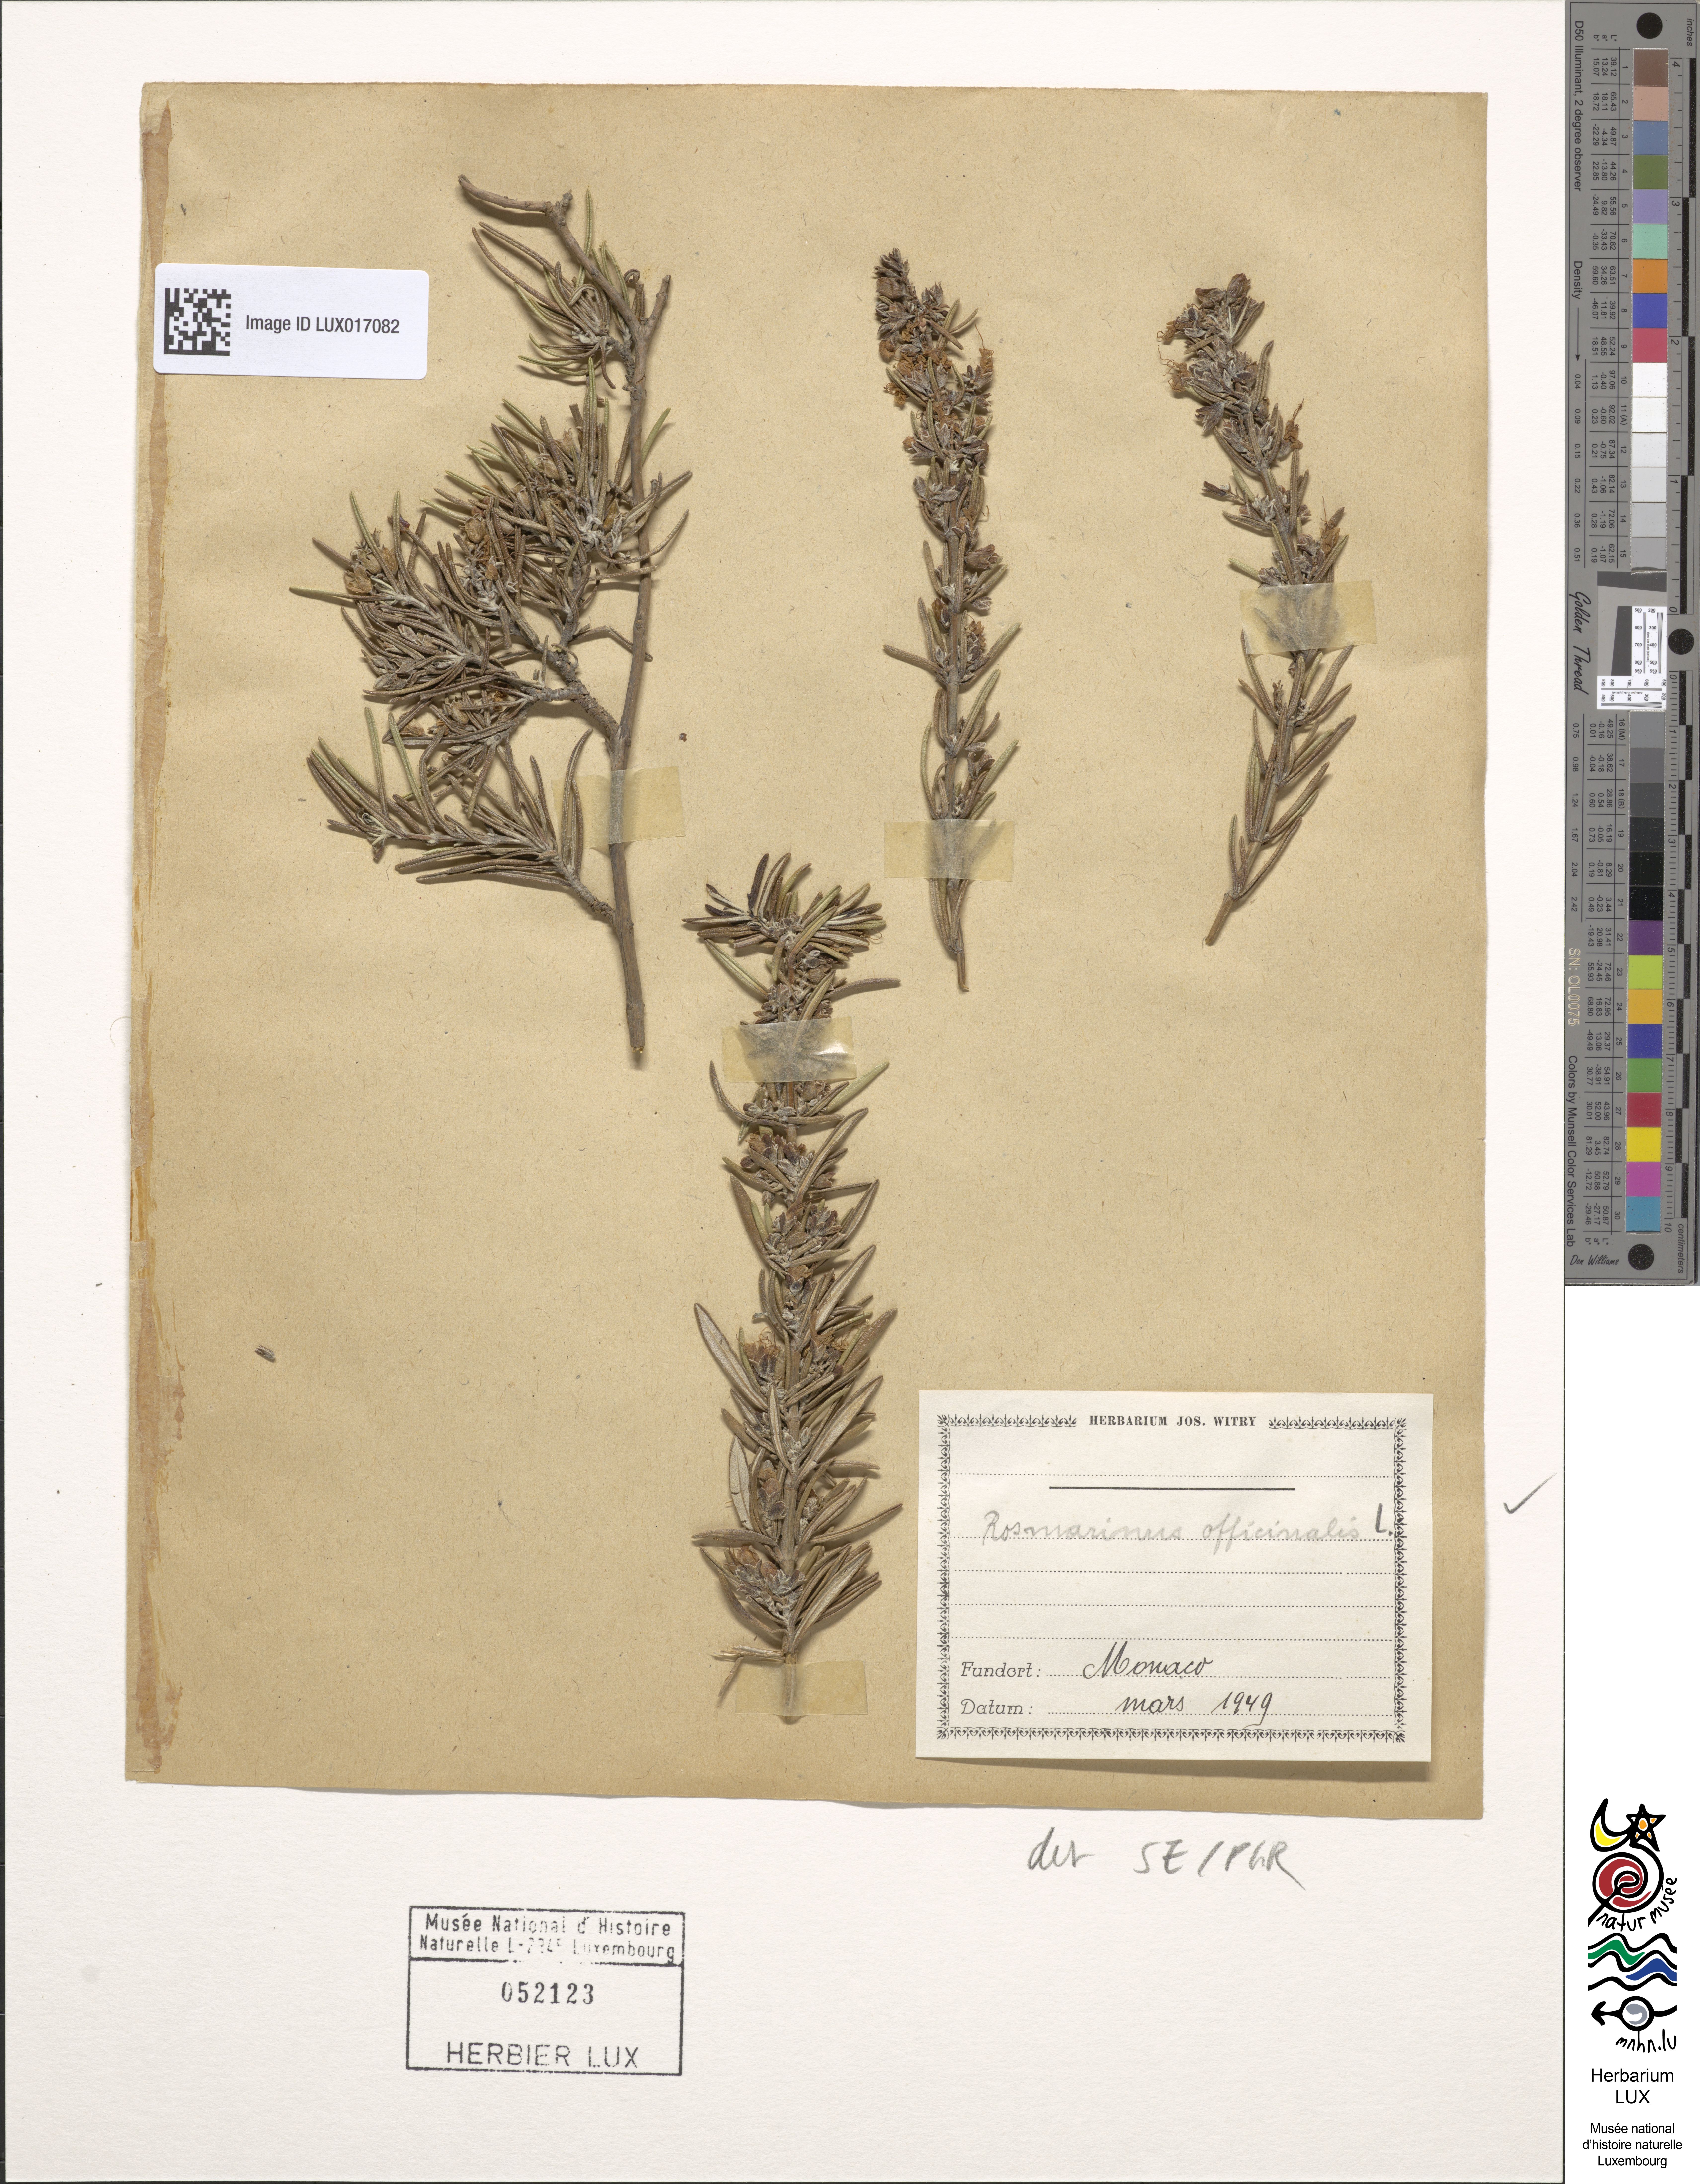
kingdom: Plantae
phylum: Tracheophyta
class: Magnoliopsida
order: Lamiales
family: Lamiaceae
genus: Salvia
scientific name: Salvia rosmarinus
